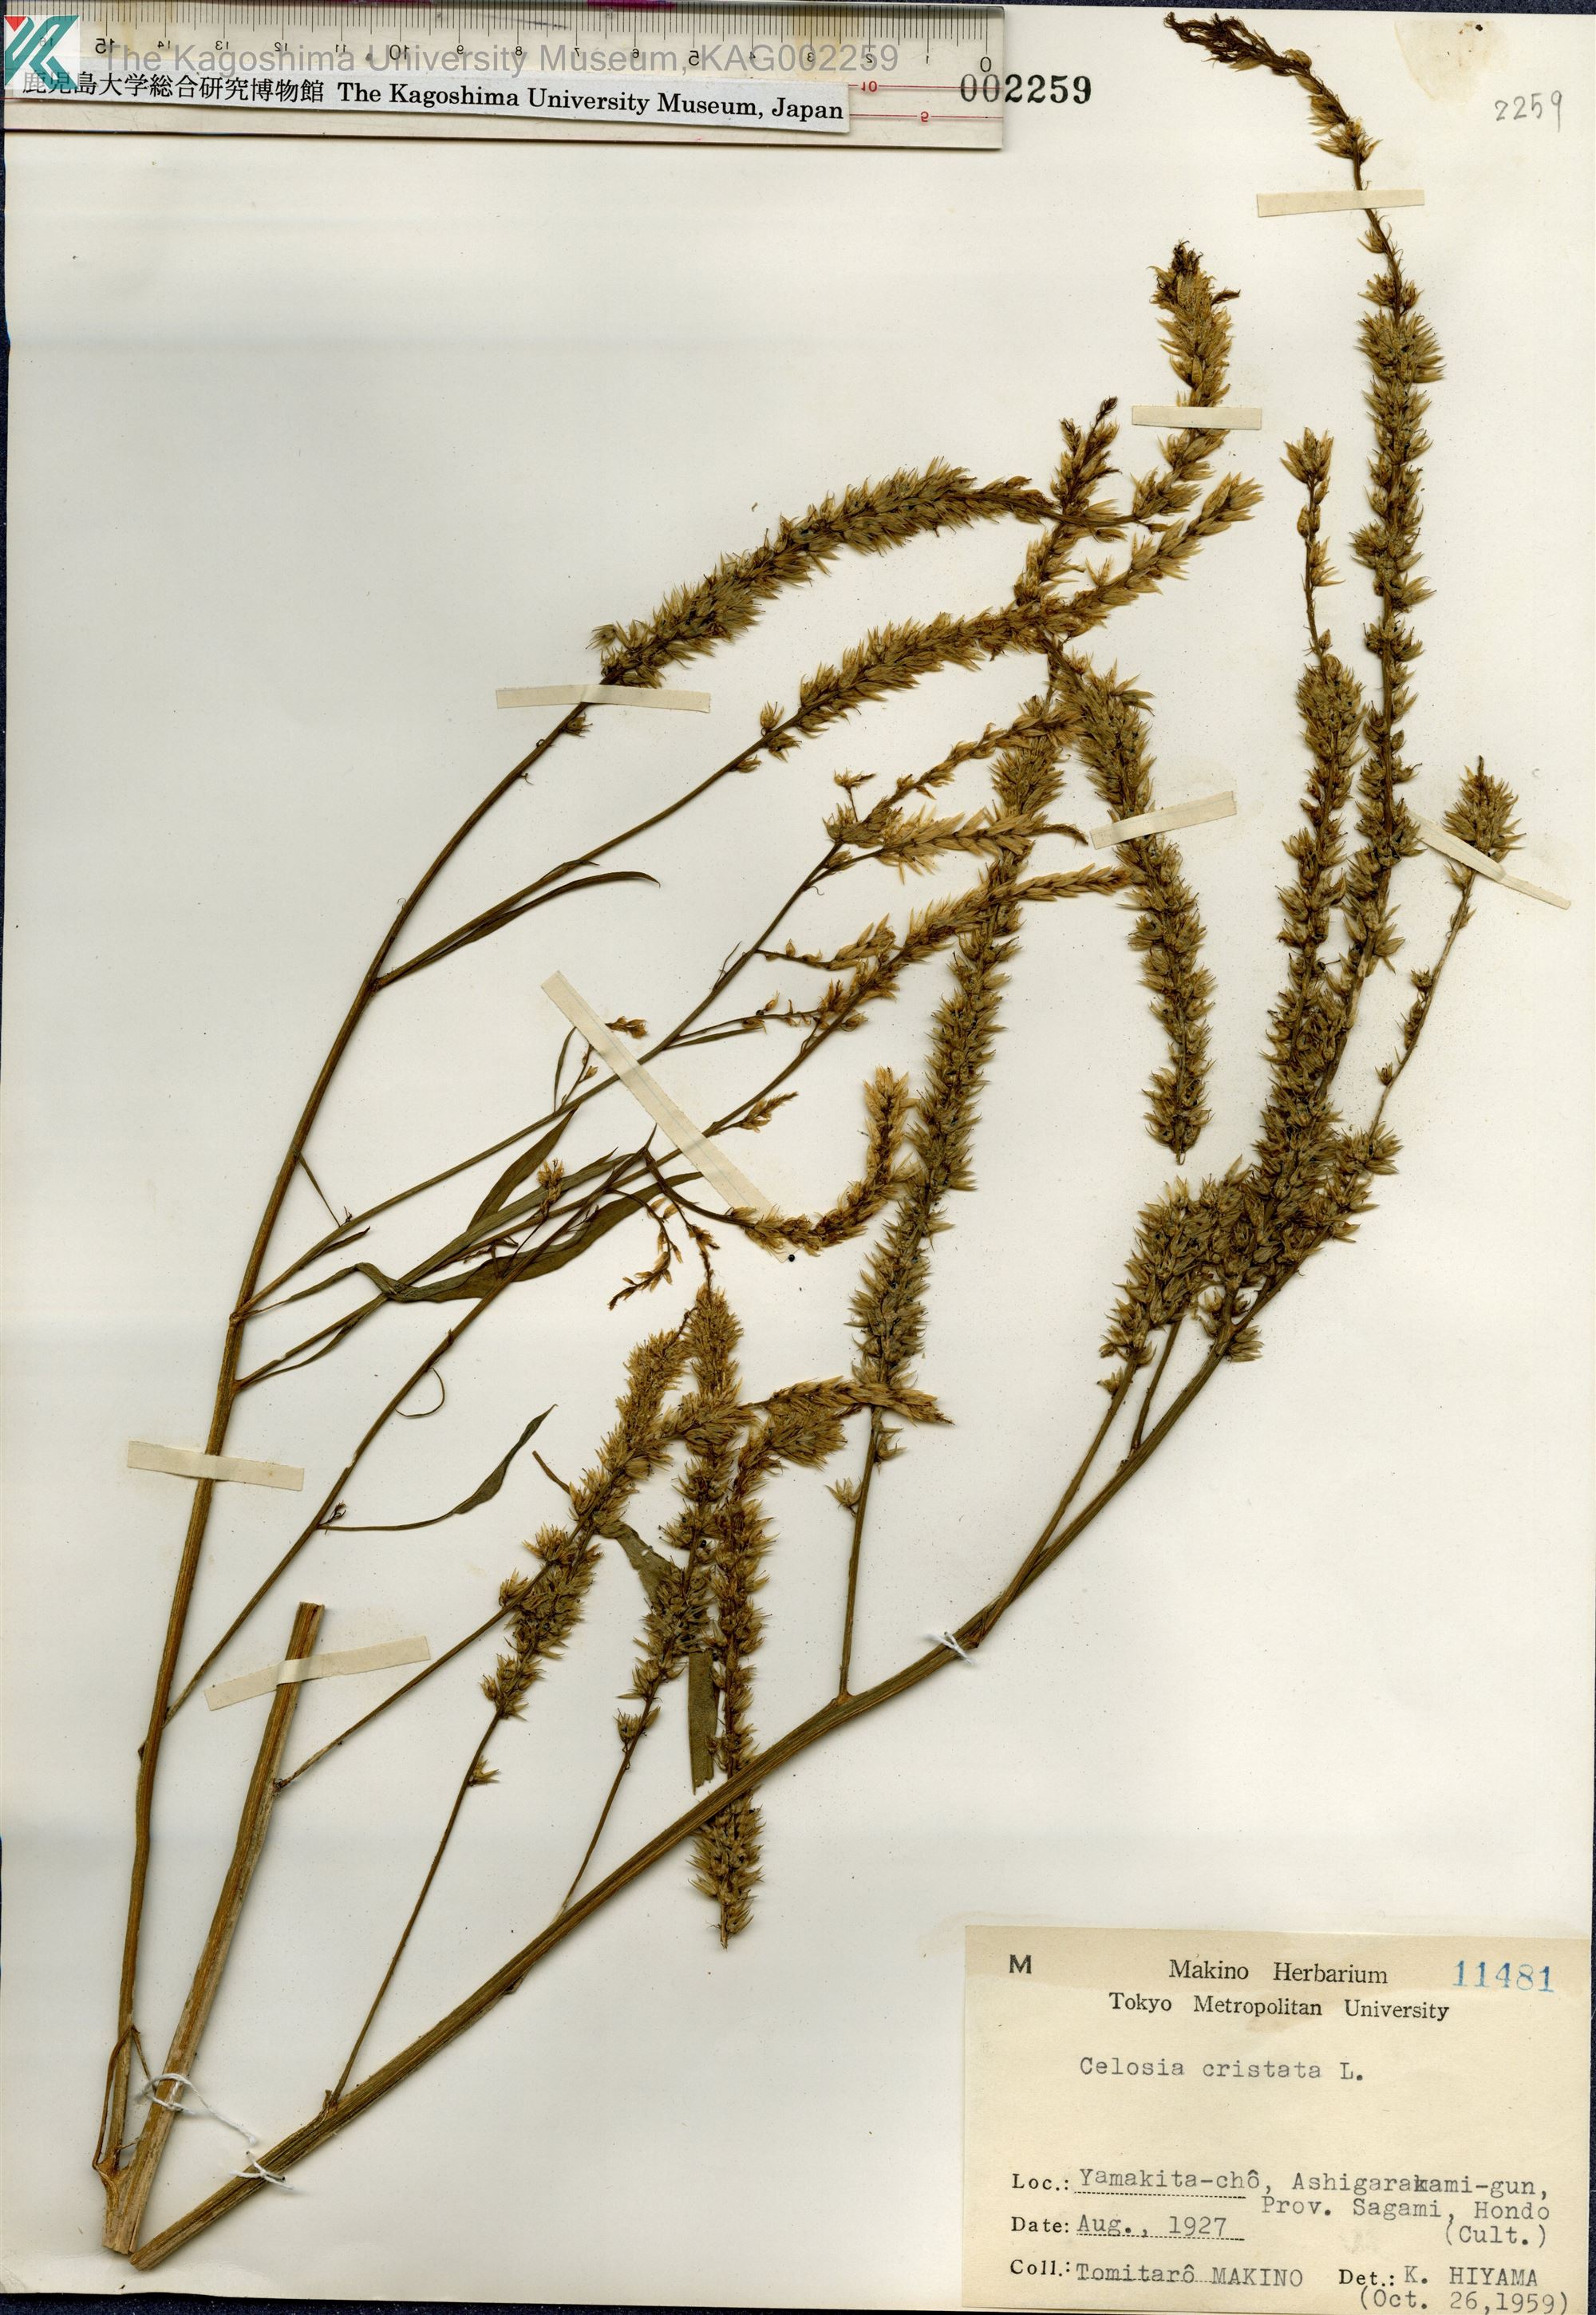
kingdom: Plantae
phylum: Tracheophyta
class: Magnoliopsida
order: Caryophyllales
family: Amaranthaceae
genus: Celosia
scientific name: Celosia argentea
